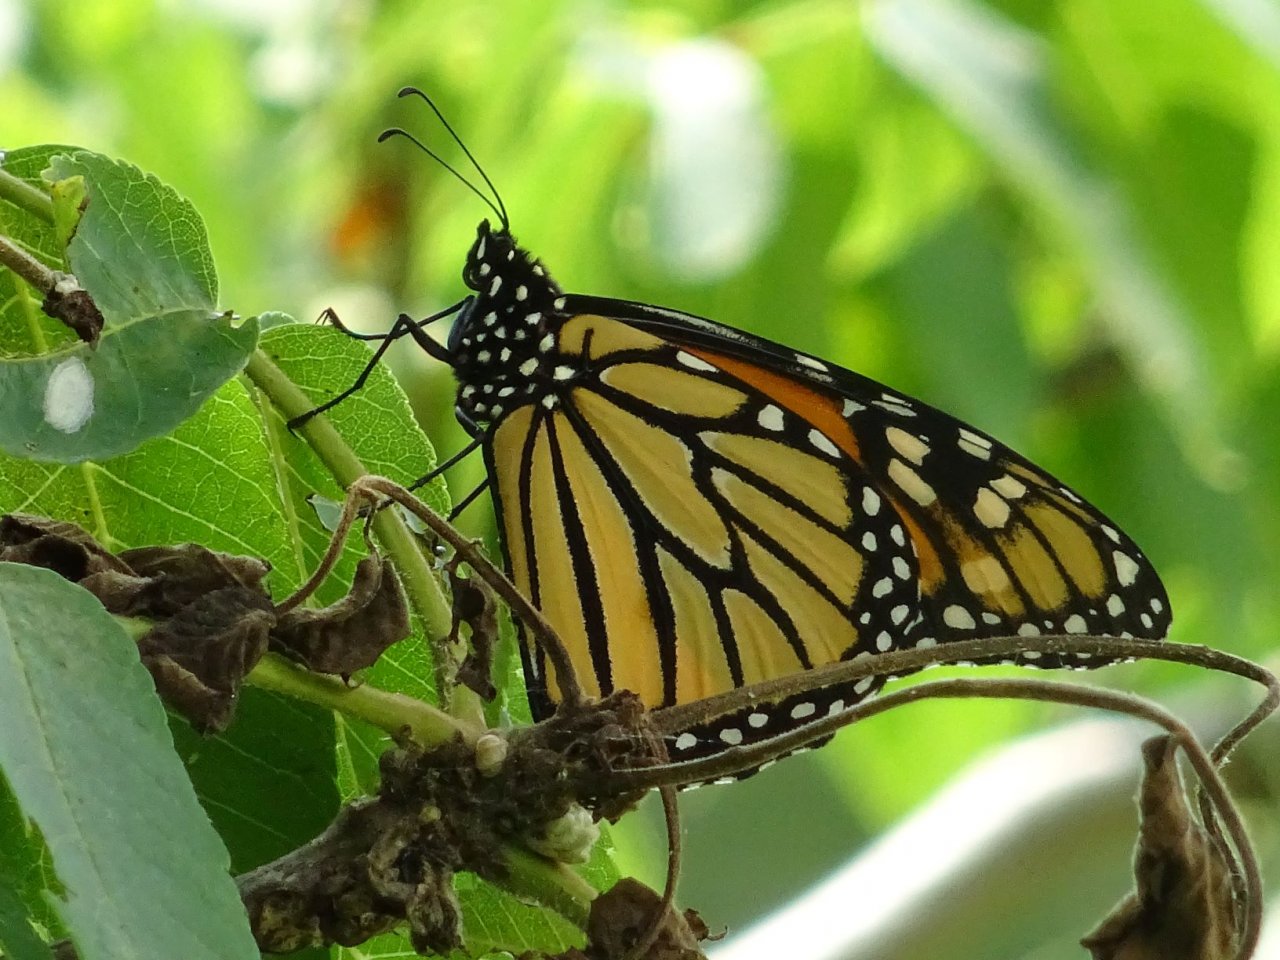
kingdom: Animalia
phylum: Arthropoda
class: Insecta
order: Lepidoptera
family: Nymphalidae
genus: Danaus
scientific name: Danaus plexippus
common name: Monarch
